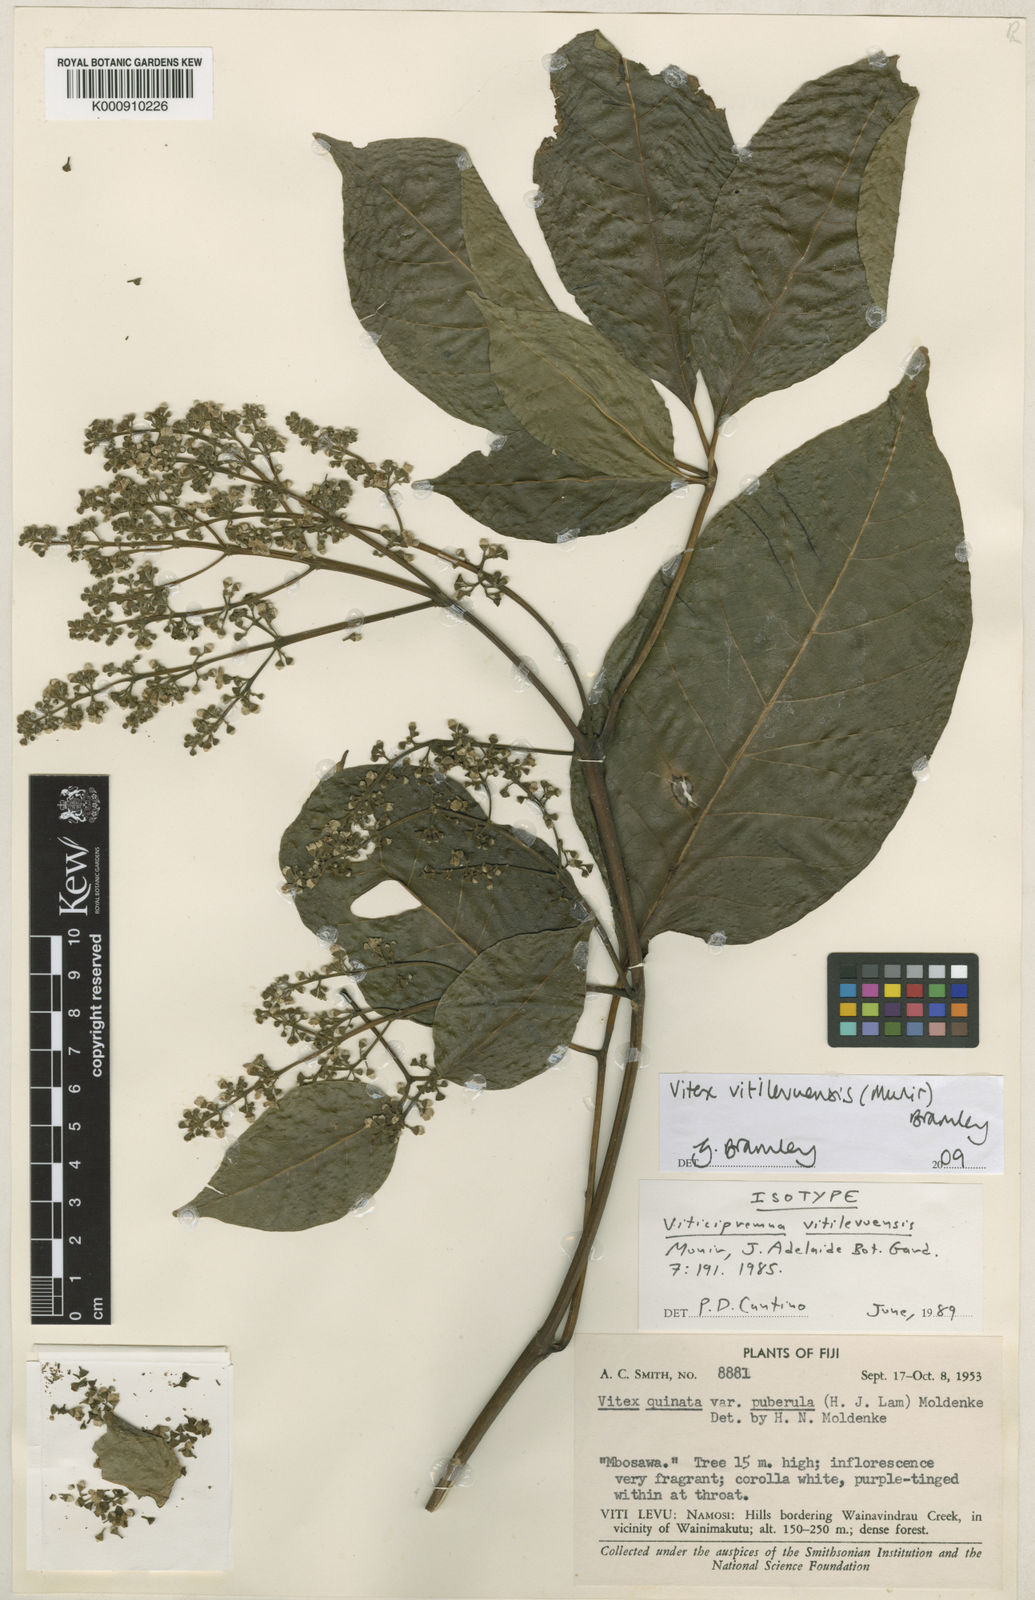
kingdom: Plantae
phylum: Tracheophyta
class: Magnoliopsida
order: Lamiales
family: Lamiaceae
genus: Vitex
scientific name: Vitex vitilevuensis
